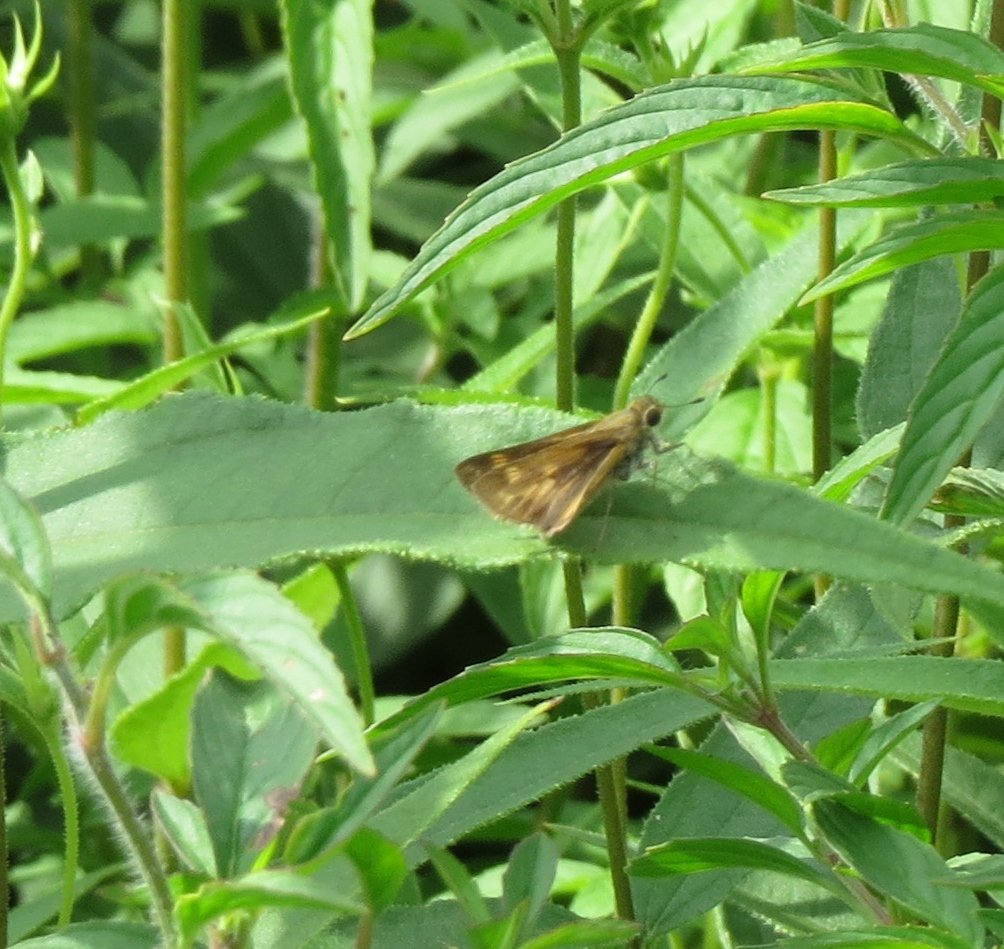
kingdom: Animalia
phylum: Arthropoda
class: Insecta
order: Lepidoptera
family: Hesperiidae
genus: Hylephila
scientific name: Hylephila phyleus
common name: Fiery Skipper
